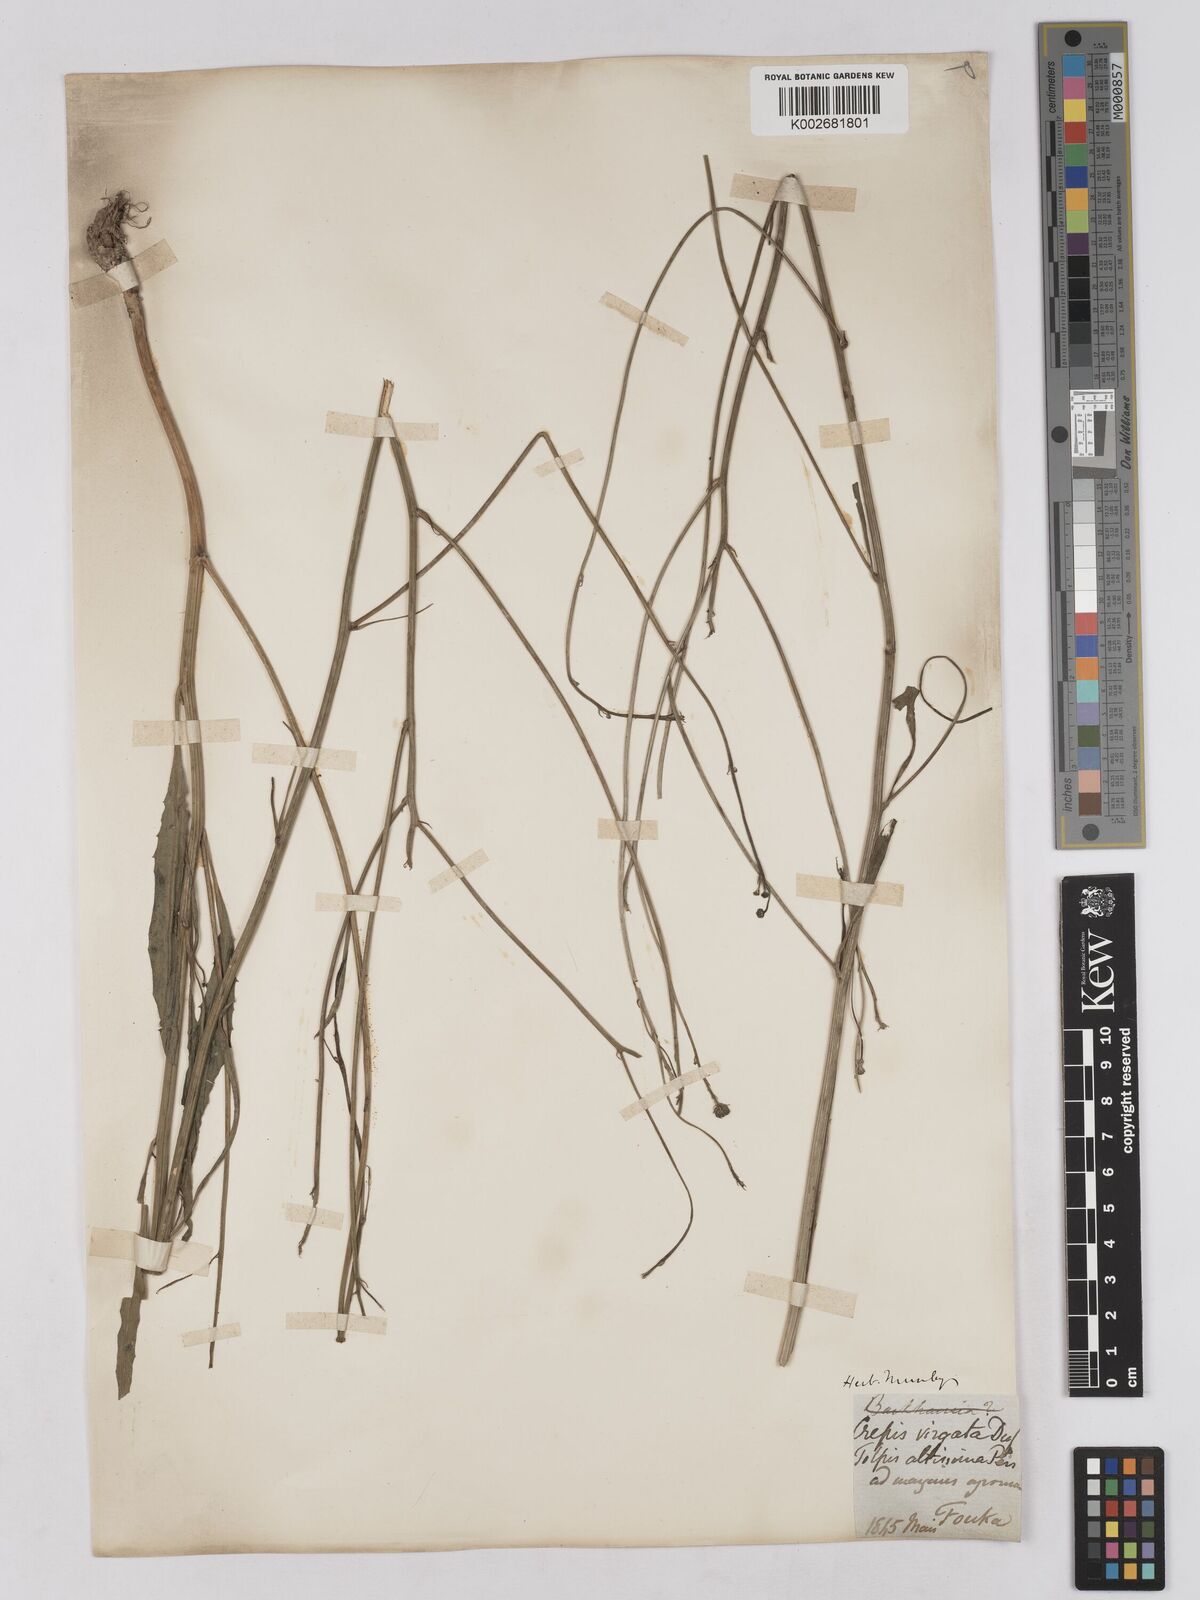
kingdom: Plantae
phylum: Tracheophyta
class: Magnoliopsida
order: Asterales
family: Asteraceae
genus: Tolpis
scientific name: Tolpis virgata
